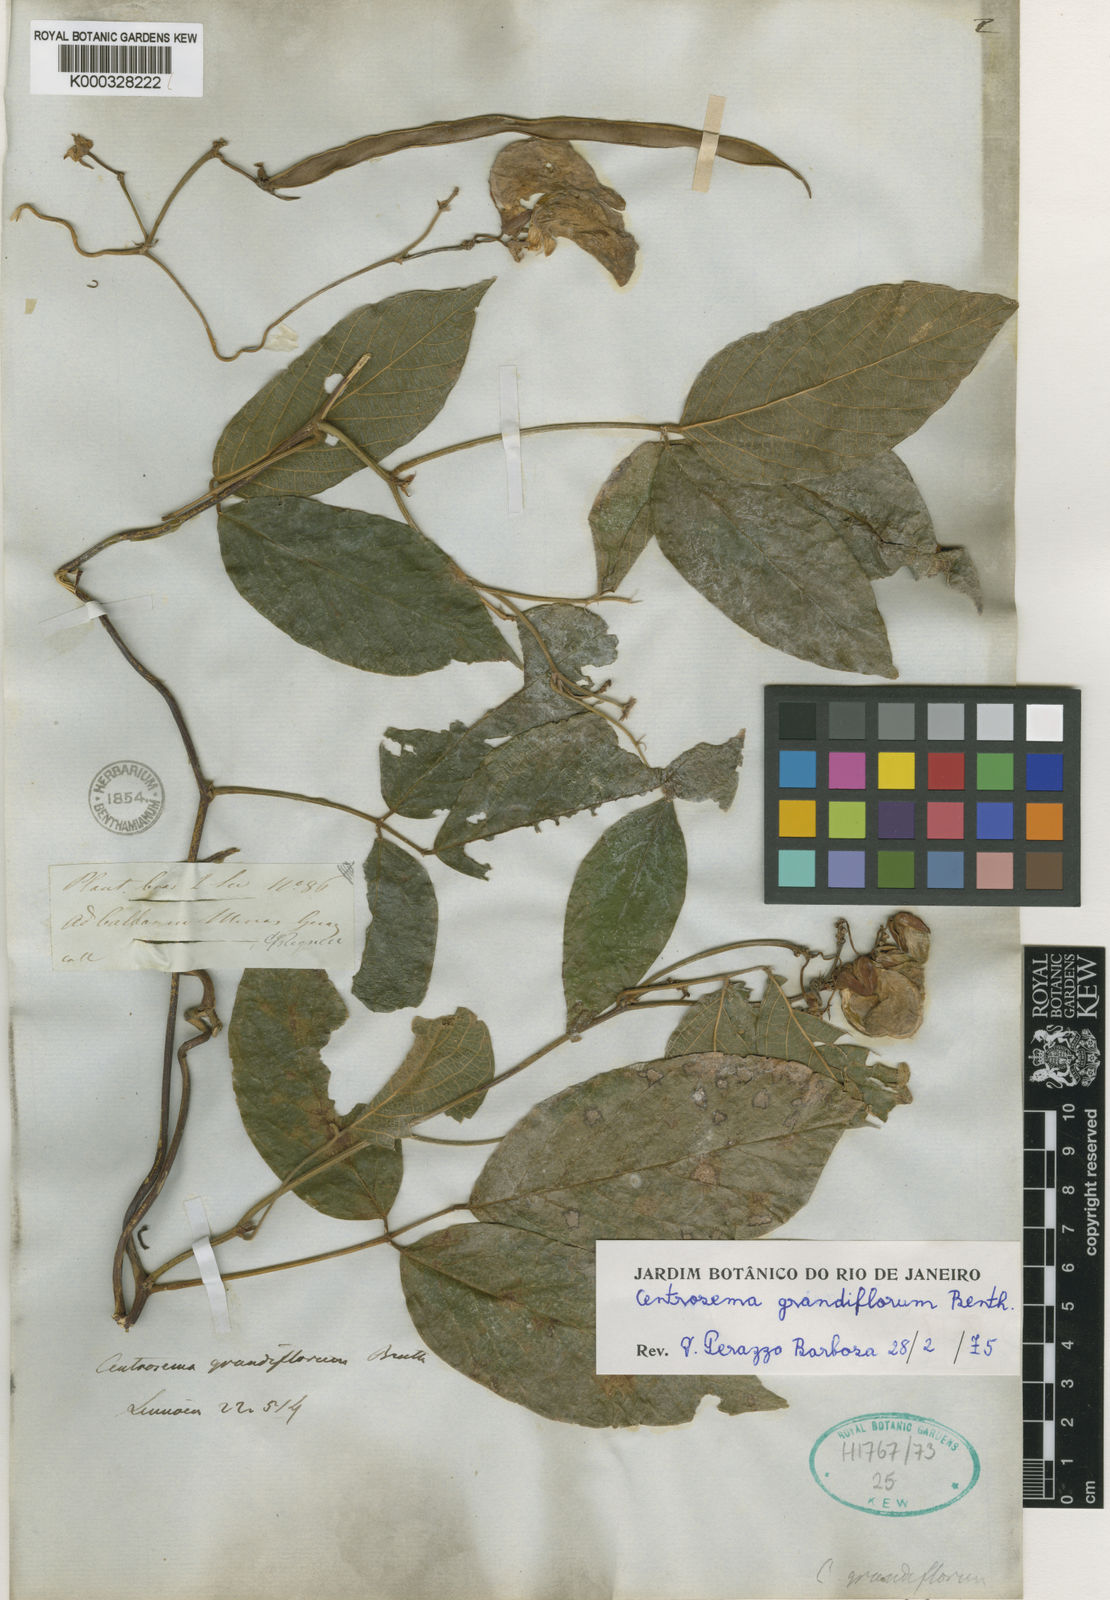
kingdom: Plantae
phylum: Tracheophyta
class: Magnoliopsida
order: Fabales
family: Fabaceae
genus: Centrosema
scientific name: Centrosema grandiflorum
